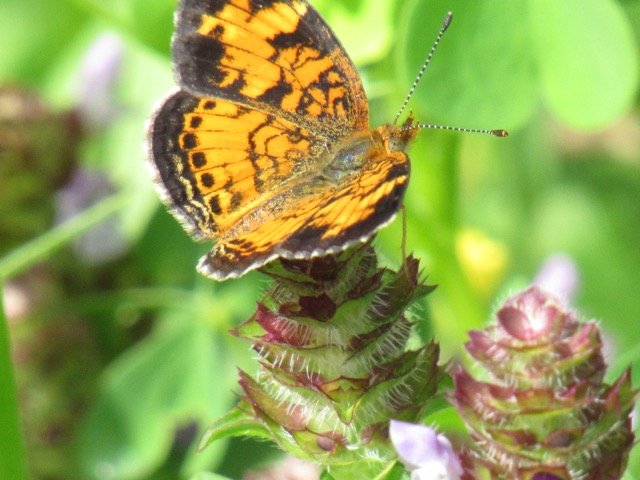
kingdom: Animalia
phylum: Arthropoda
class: Insecta
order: Lepidoptera
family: Nymphalidae
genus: Phyciodes
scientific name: Phyciodes tharos
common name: Pearl Crescent
